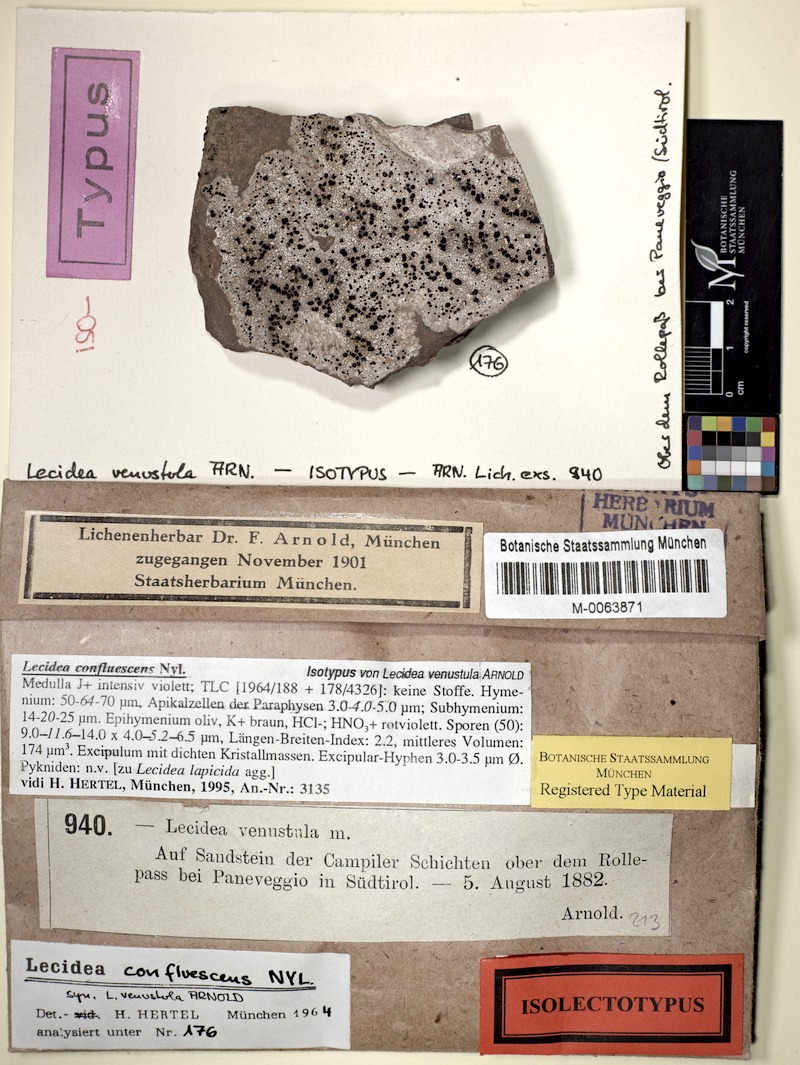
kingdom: Fungi
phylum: Ascomycota
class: Lecanoromycetes
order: Lecideales
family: Lecideaceae
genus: Lecidea
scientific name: Lecidea confluescens
